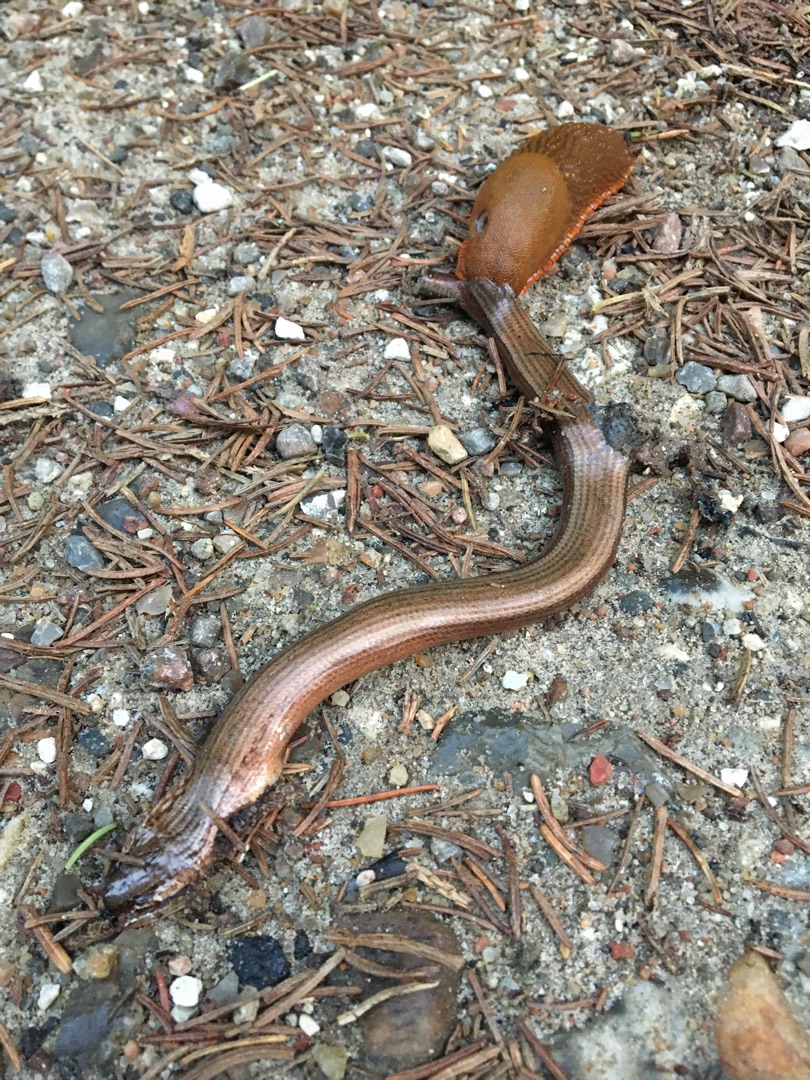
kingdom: Animalia
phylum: Chordata
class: Squamata
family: Anguidae
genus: Anguis
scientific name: Anguis fragilis
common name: Stålorm
